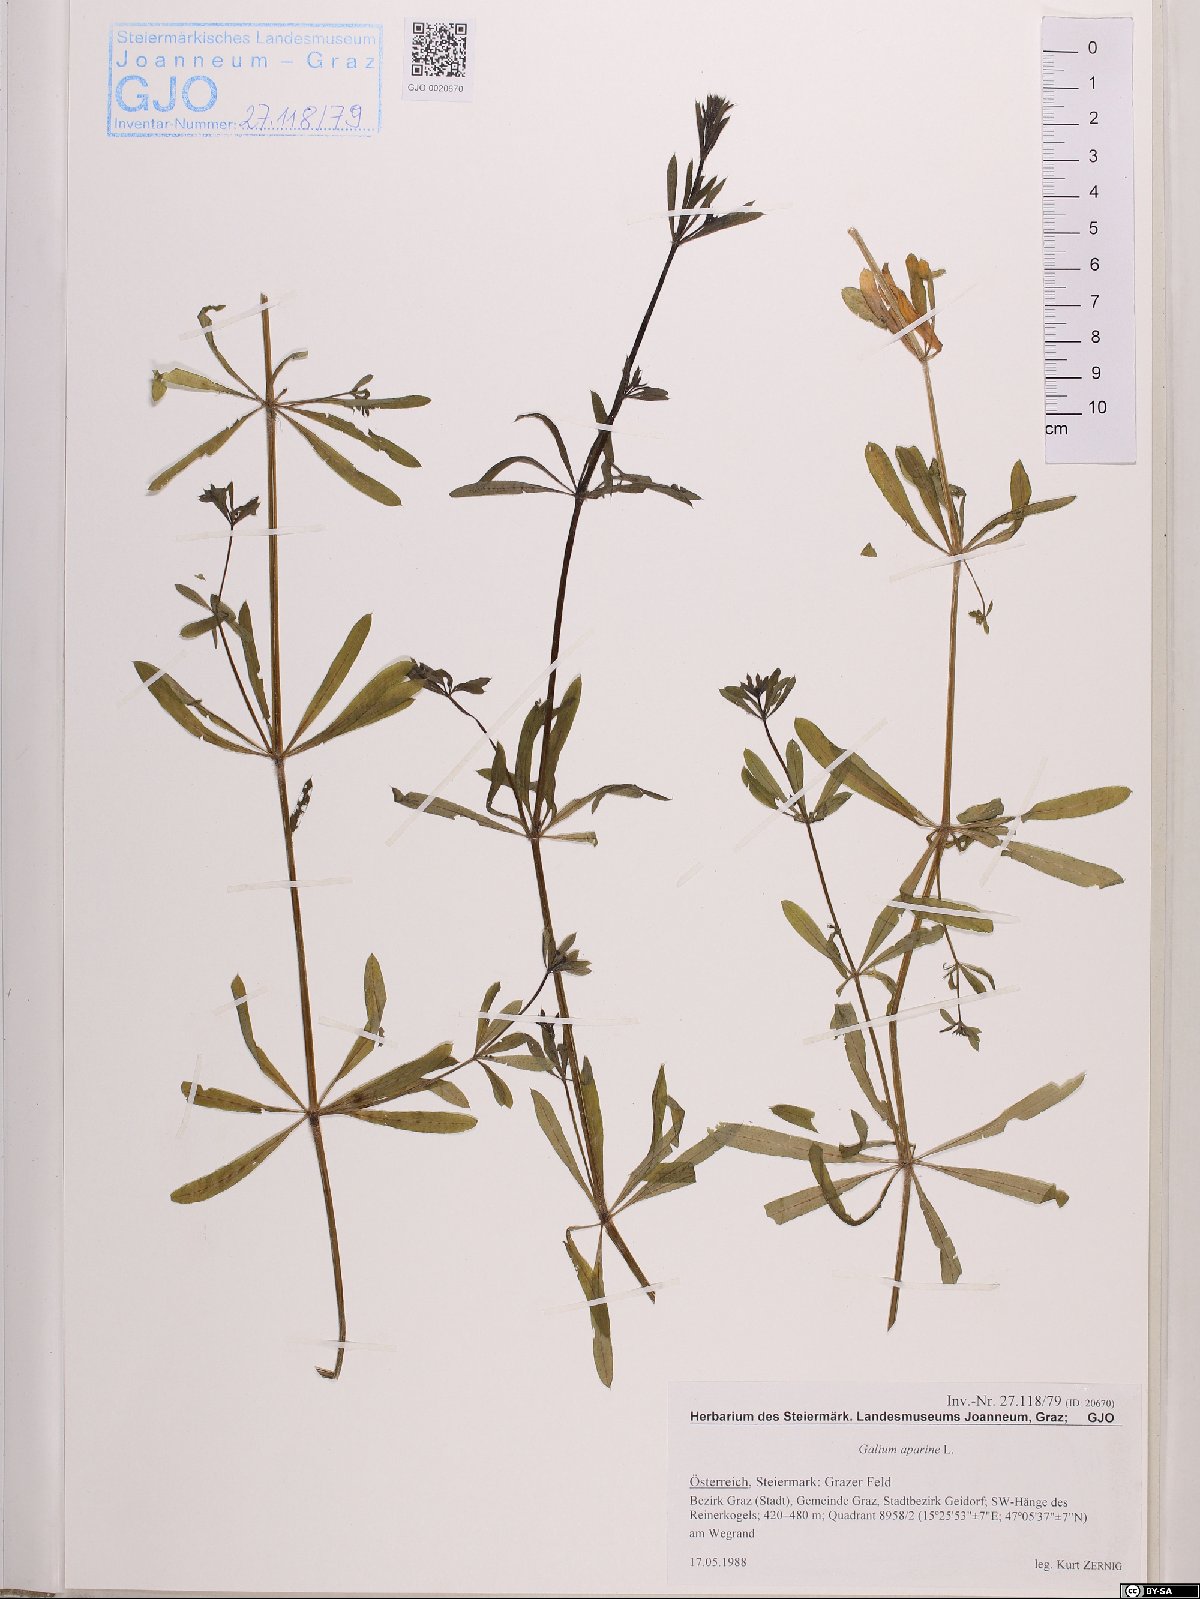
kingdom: Plantae
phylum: Tracheophyta
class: Magnoliopsida
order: Gentianales
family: Rubiaceae
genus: Galium
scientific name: Galium aparine
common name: Cleavers
